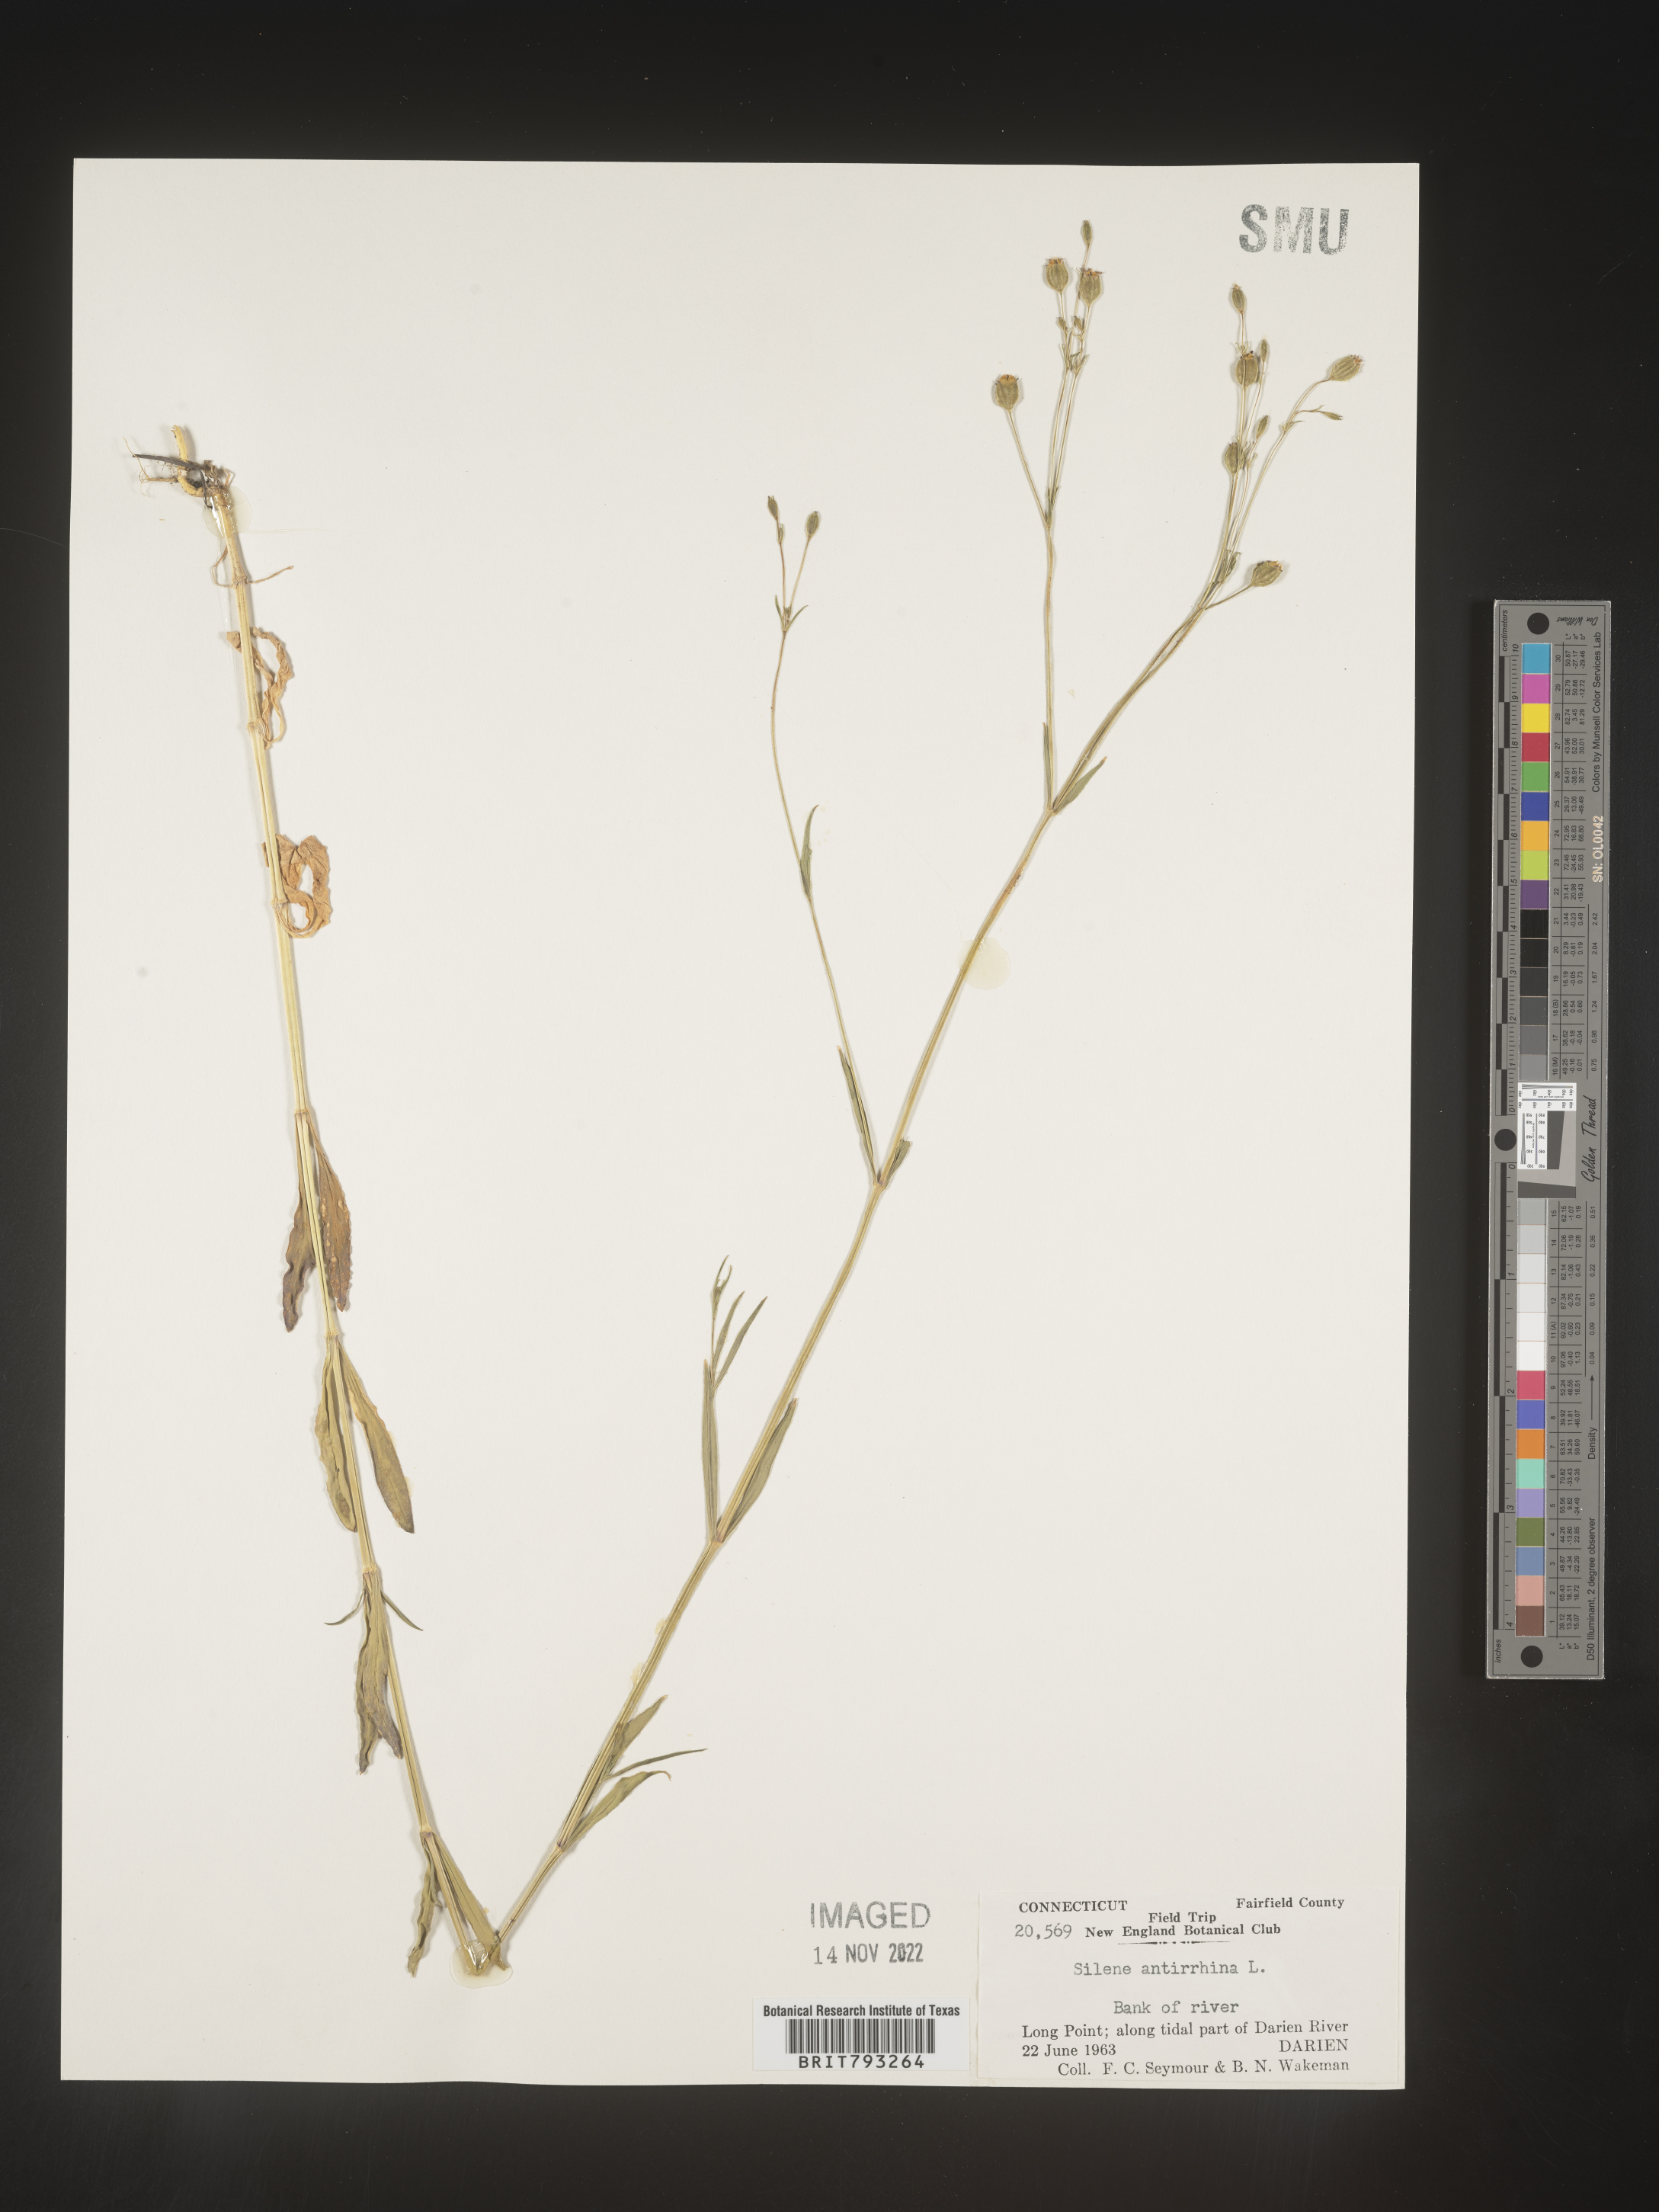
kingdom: Plantae
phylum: Tracheophyta
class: Magnoliopsida
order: Caryophyllales
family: Caryophyllaceae
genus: Silene
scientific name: Silene antirrhina
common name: Sleepy catchfly
